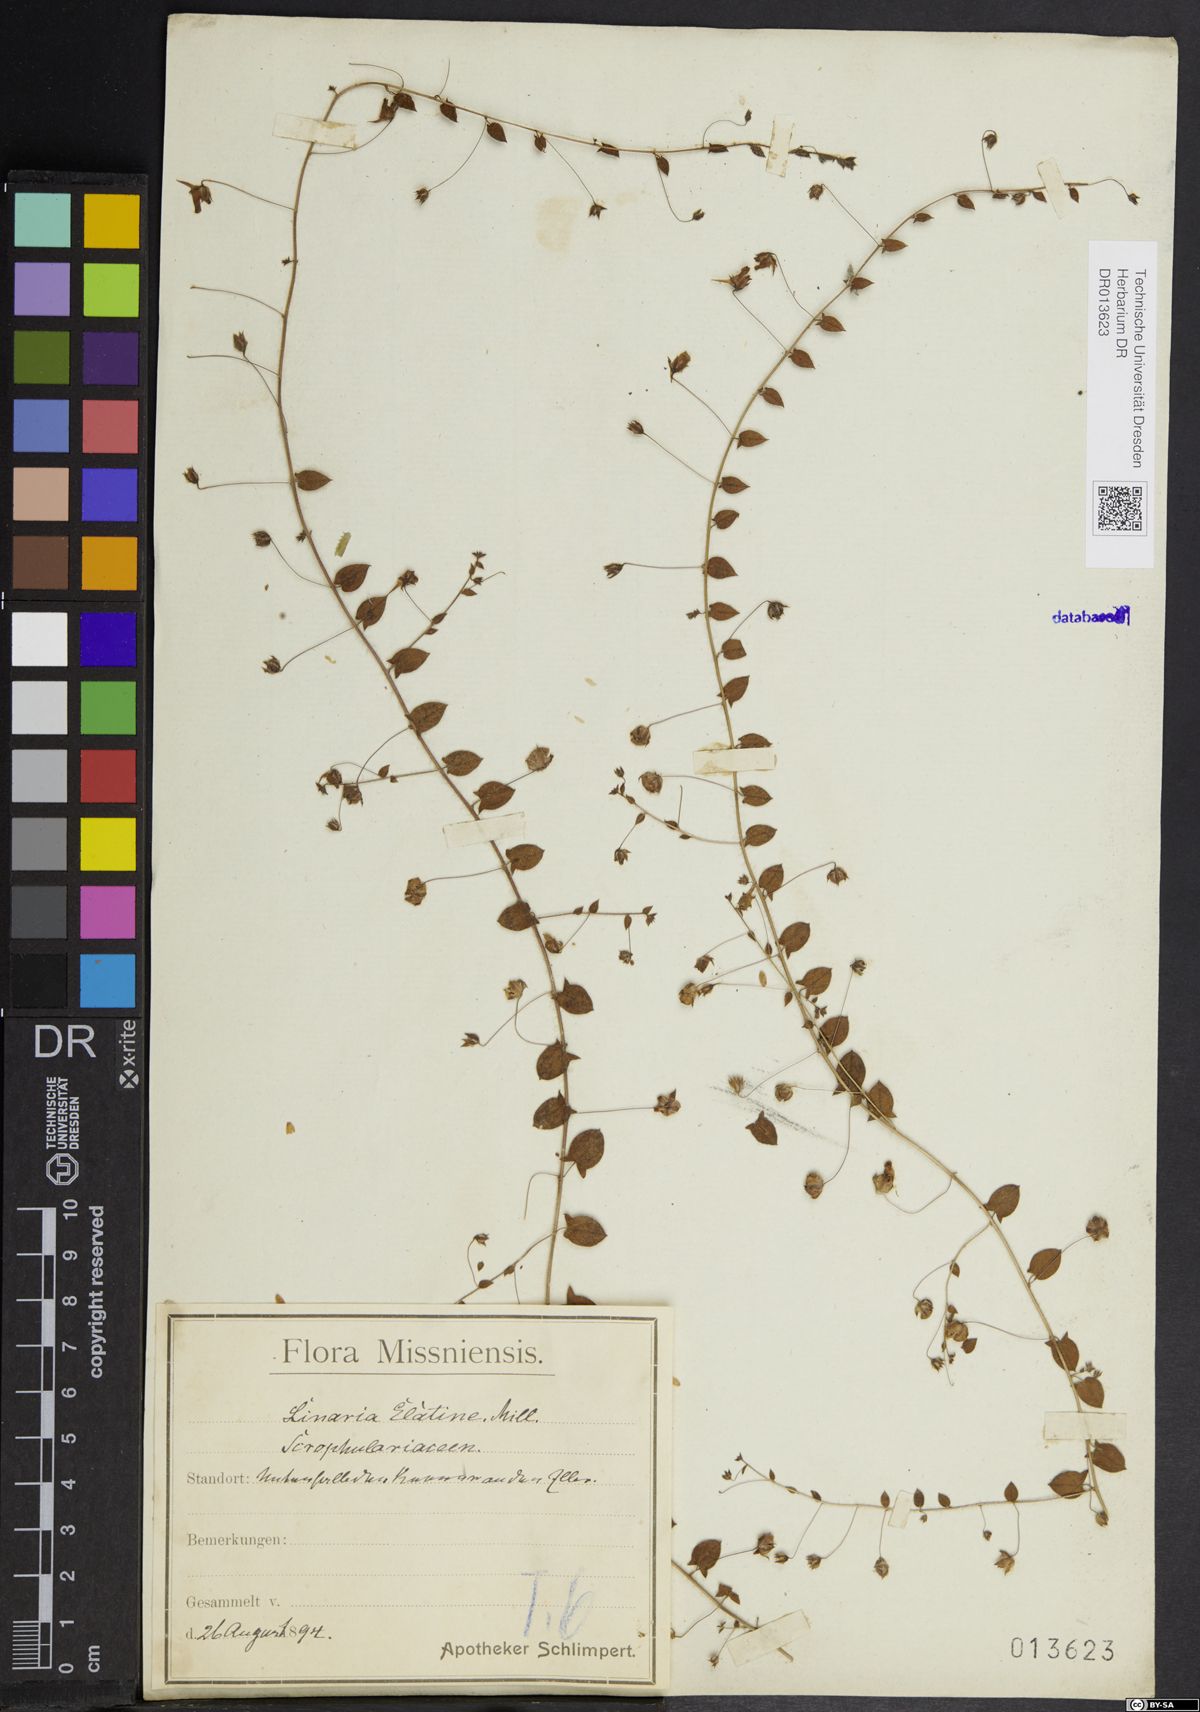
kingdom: Plantae
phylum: Tracheophyta
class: Magnoliopsida
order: Lamiales
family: Plantaginaceae
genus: Kickxia
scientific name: Kickxia elatine
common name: Sharp-leaved fluellen
